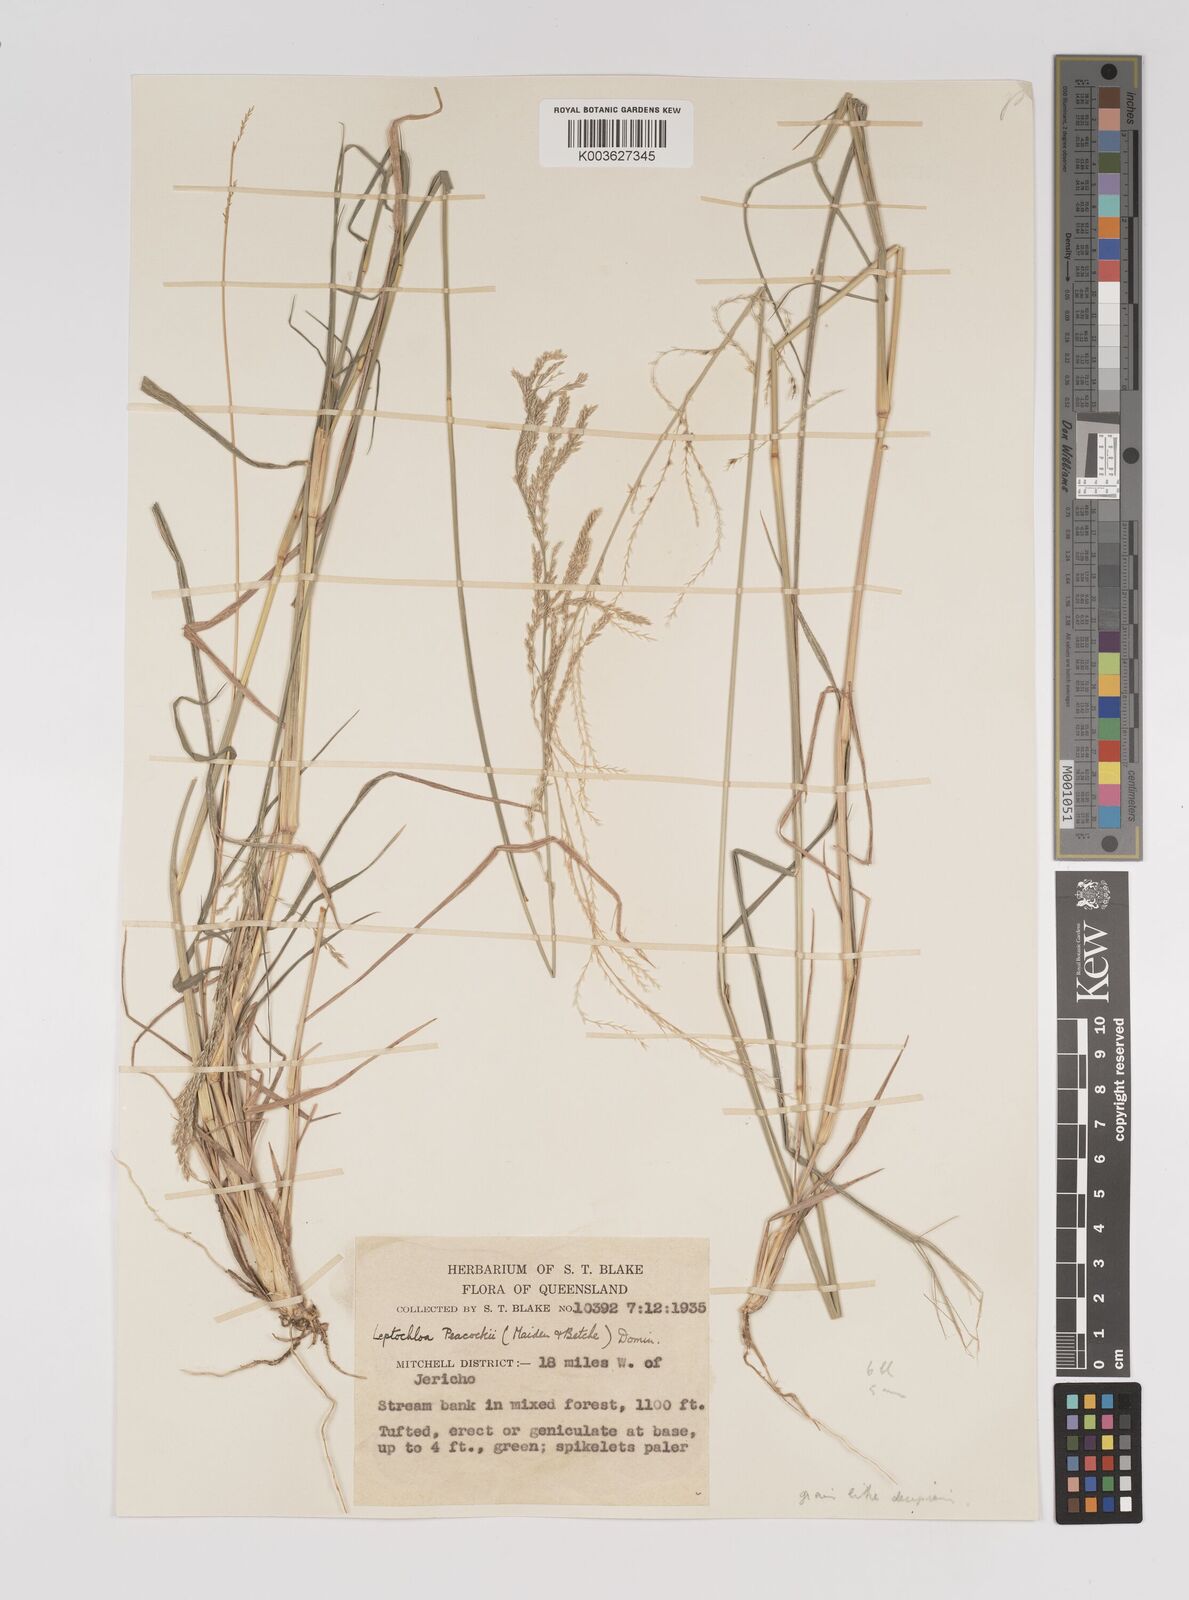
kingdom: Plantae
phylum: Tracheophyta
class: Liliopsida
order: Poales
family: Poaceae
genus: Leptochloa
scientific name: Leptochloa decipiens
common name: Australian sprangletop
